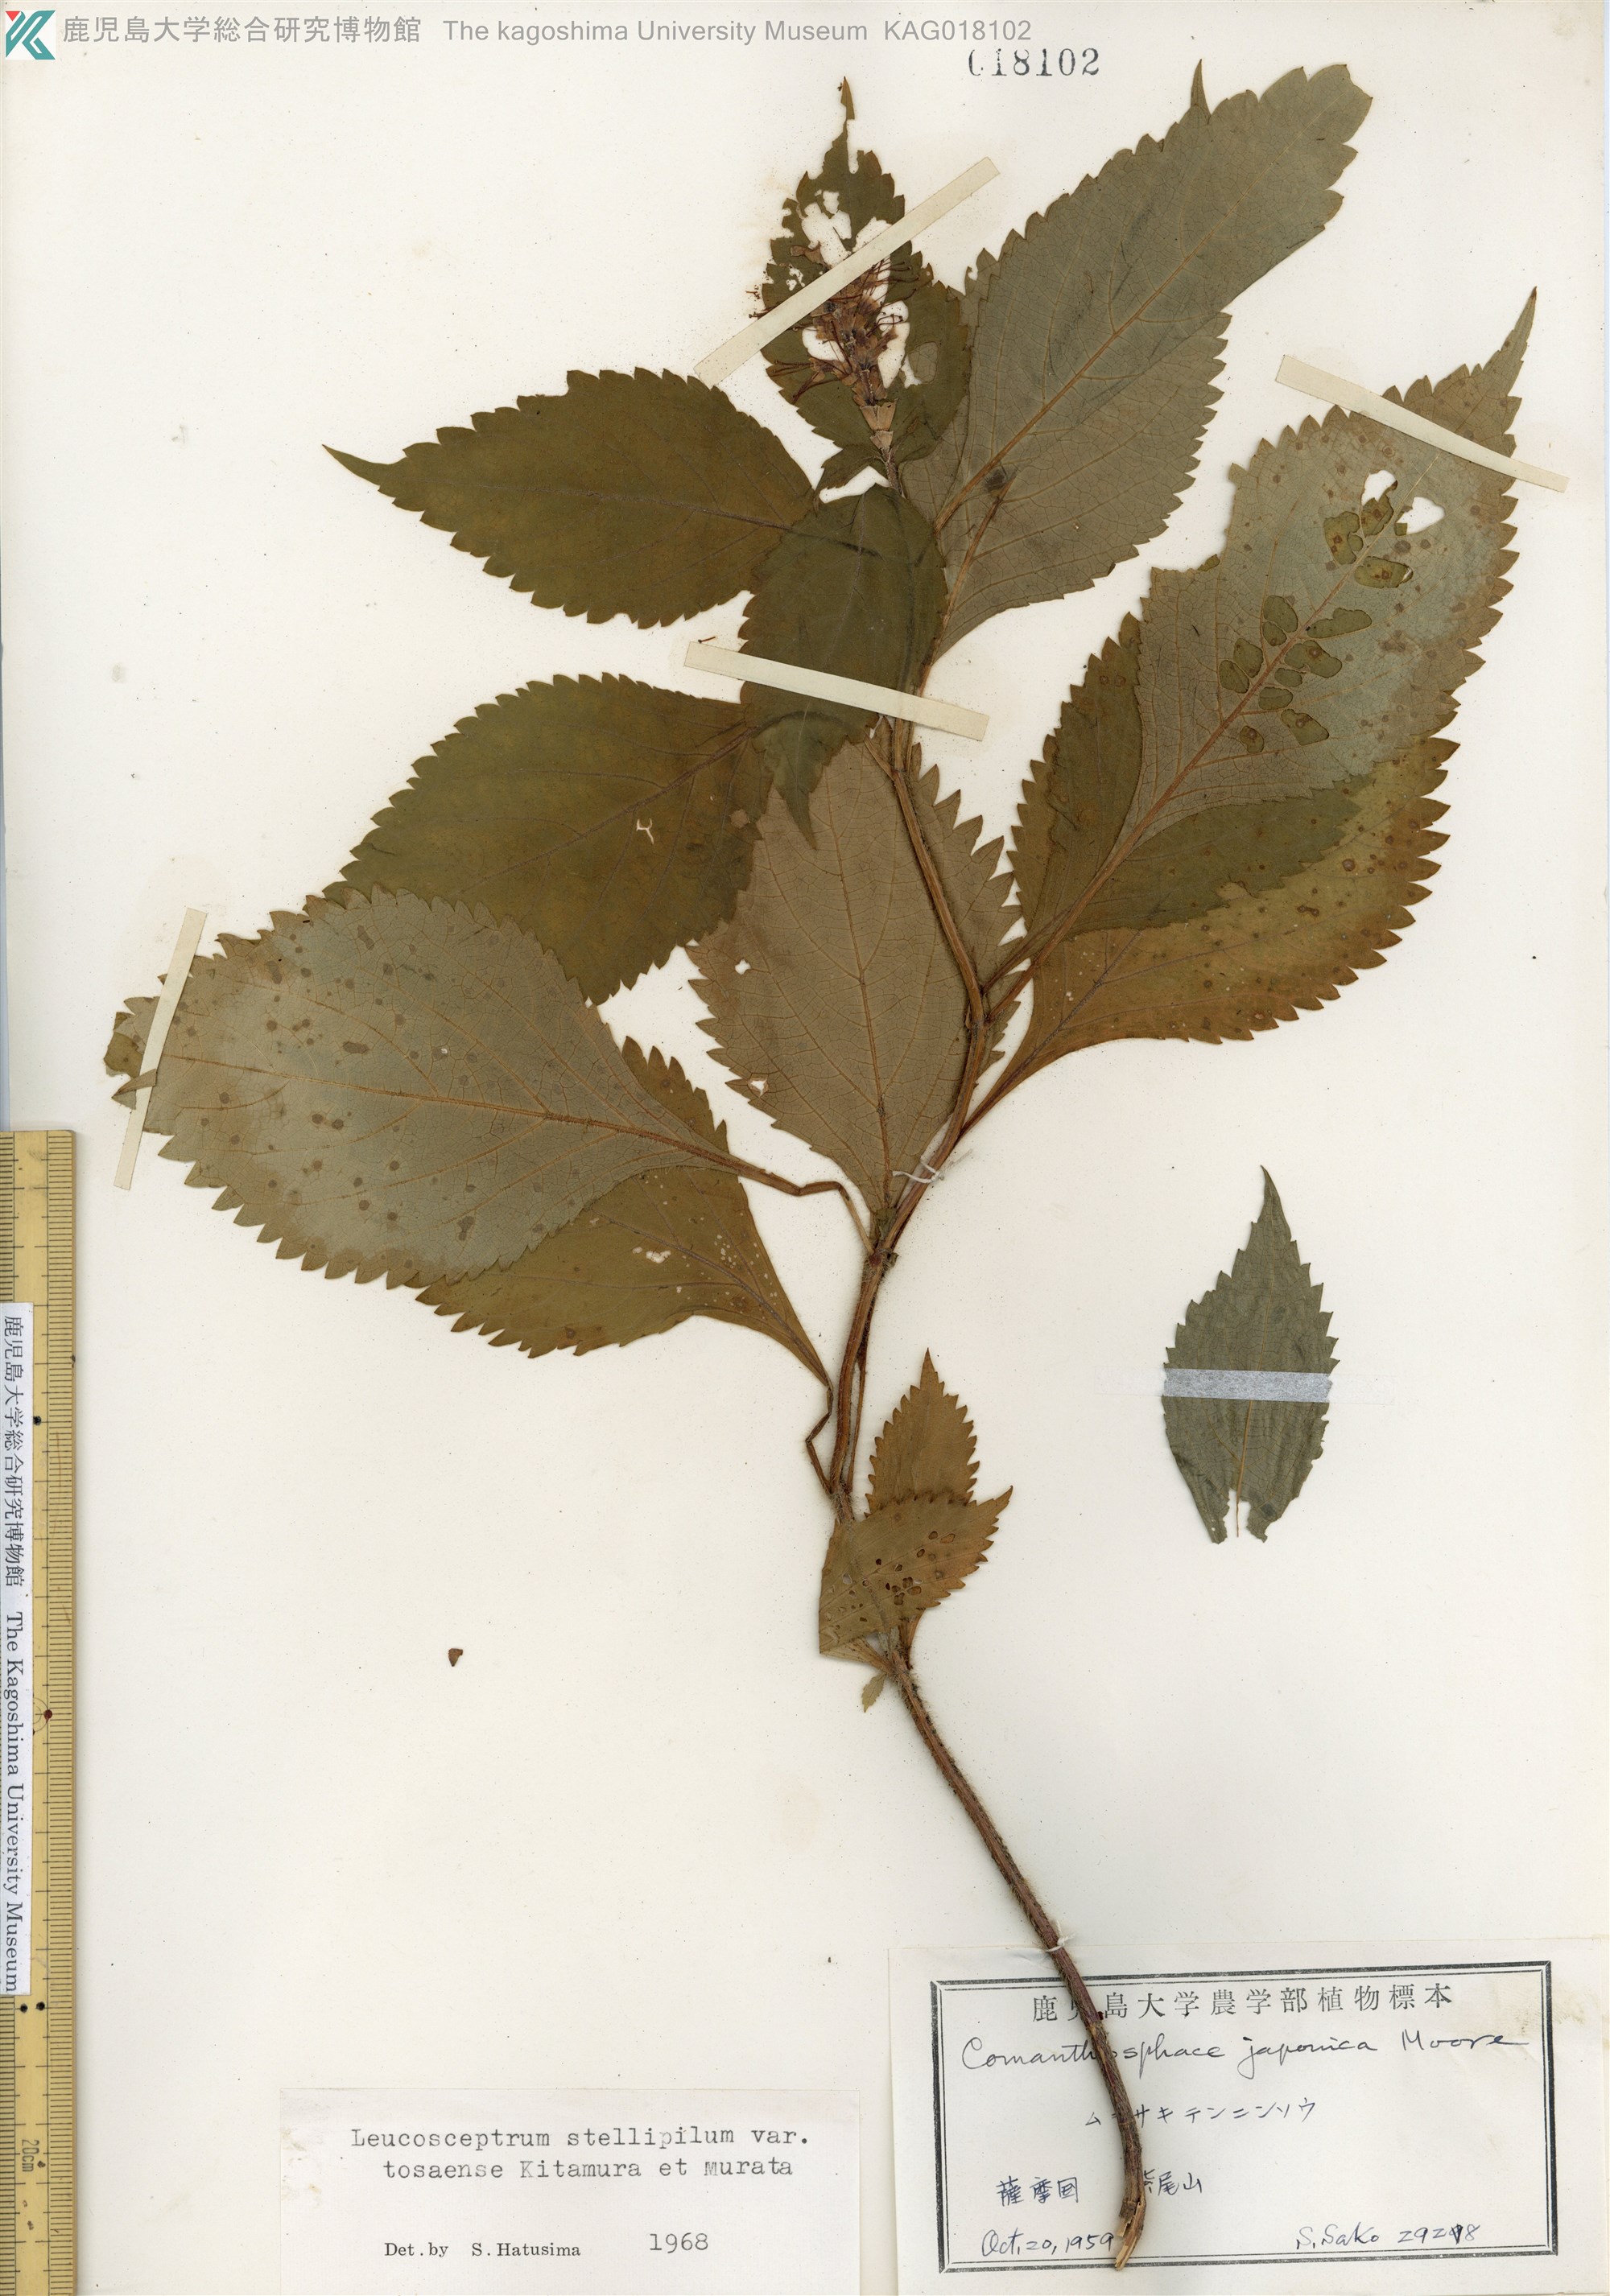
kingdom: Plantae
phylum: Tracheophyta
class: Magnoliopsida
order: Lamiales
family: Lamiaceae
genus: Comanthosphace
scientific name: Comanthosphace japonica
